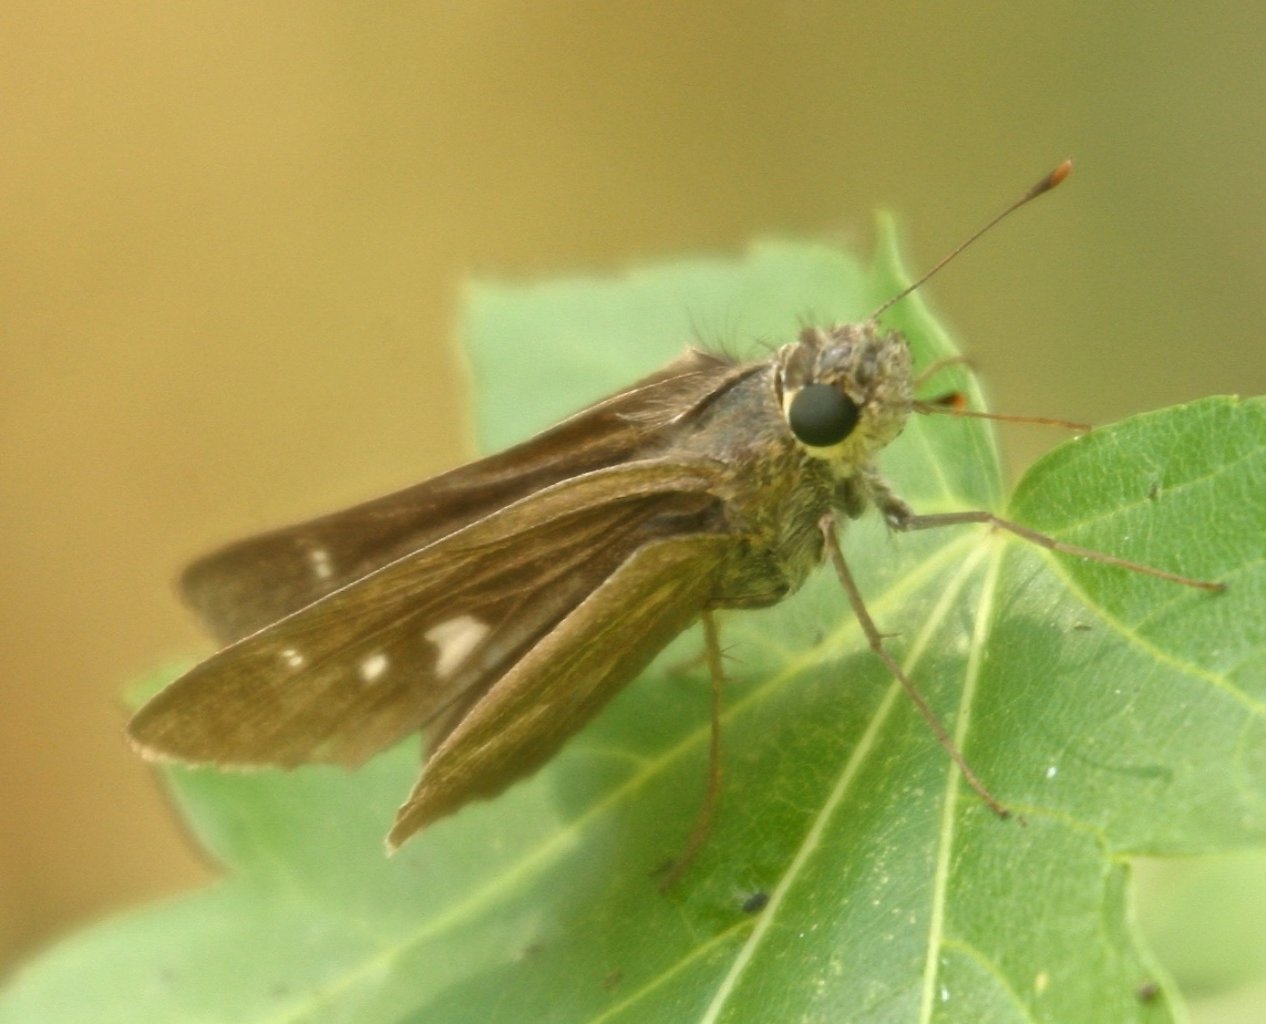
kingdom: Animalia
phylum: Arthropoda
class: Insecta
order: Lepidoptera
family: Hesperiidae
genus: Panoquina
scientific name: Panoquina ocola
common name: Ocola Skipper
